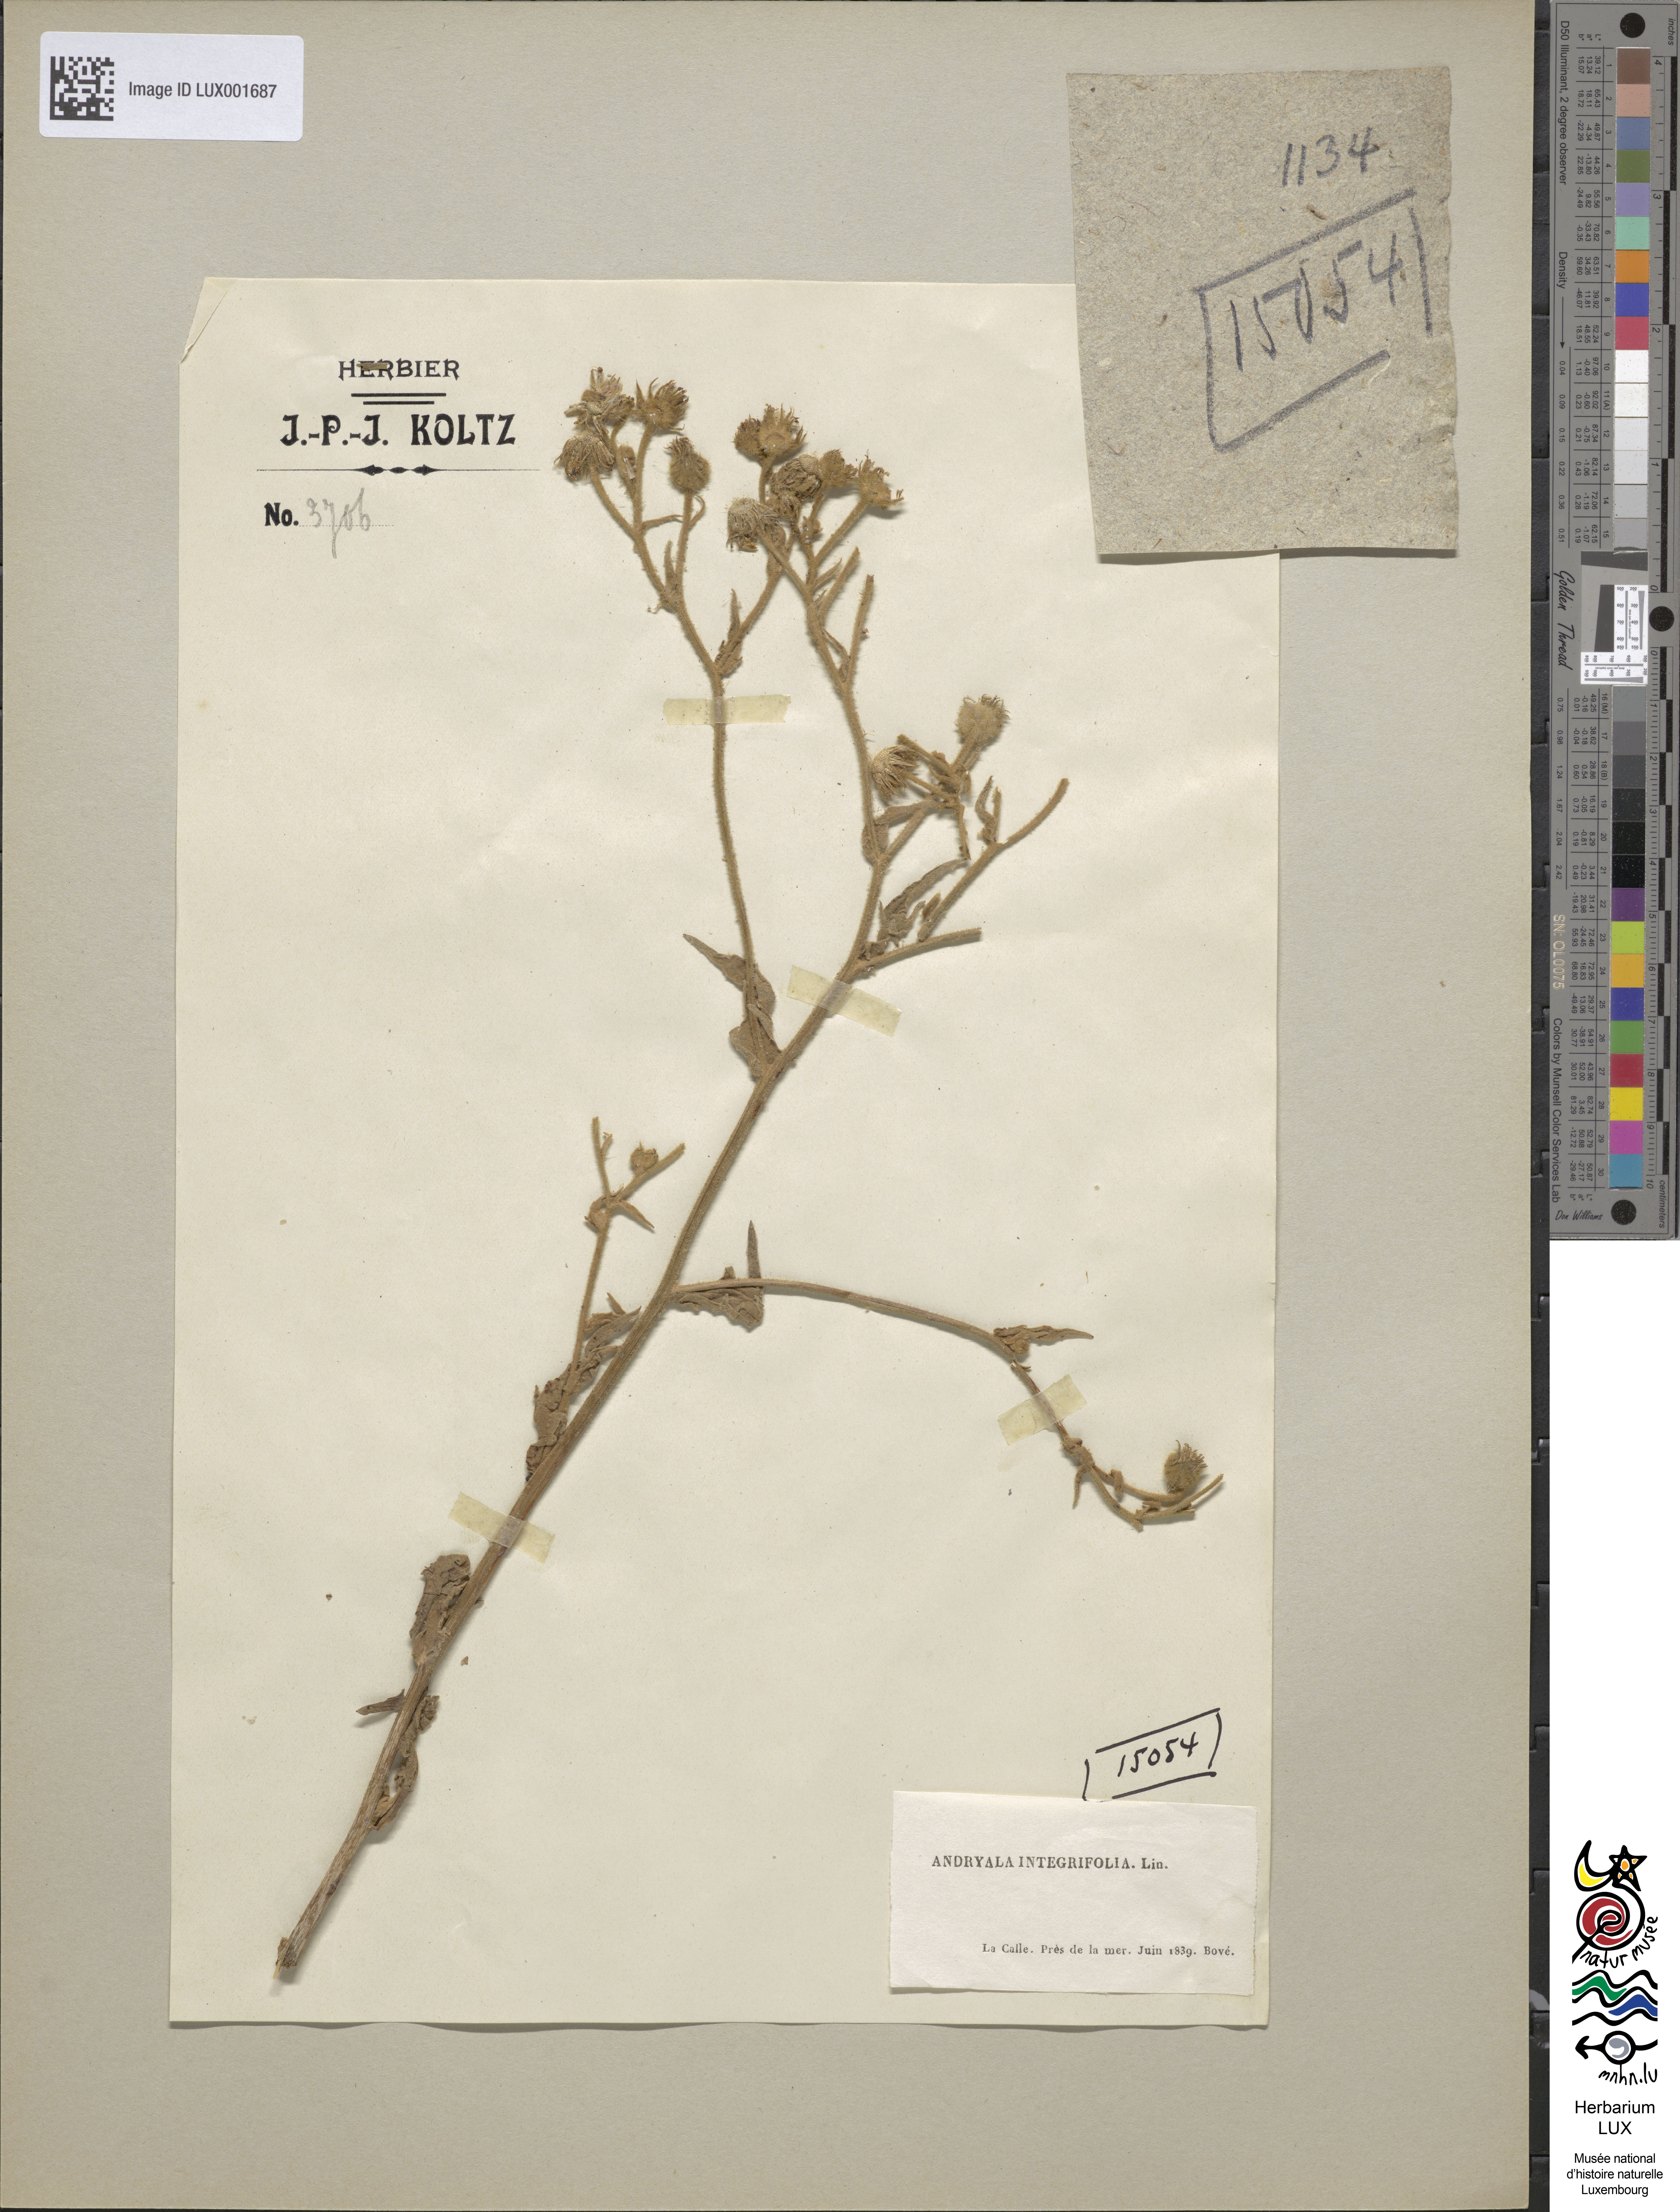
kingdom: Plantae
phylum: Tracheophyta
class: Magnoliopsida
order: Asterales
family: Asteraceae
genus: Andryala
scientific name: Andryala integrifolia
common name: Common andryala
